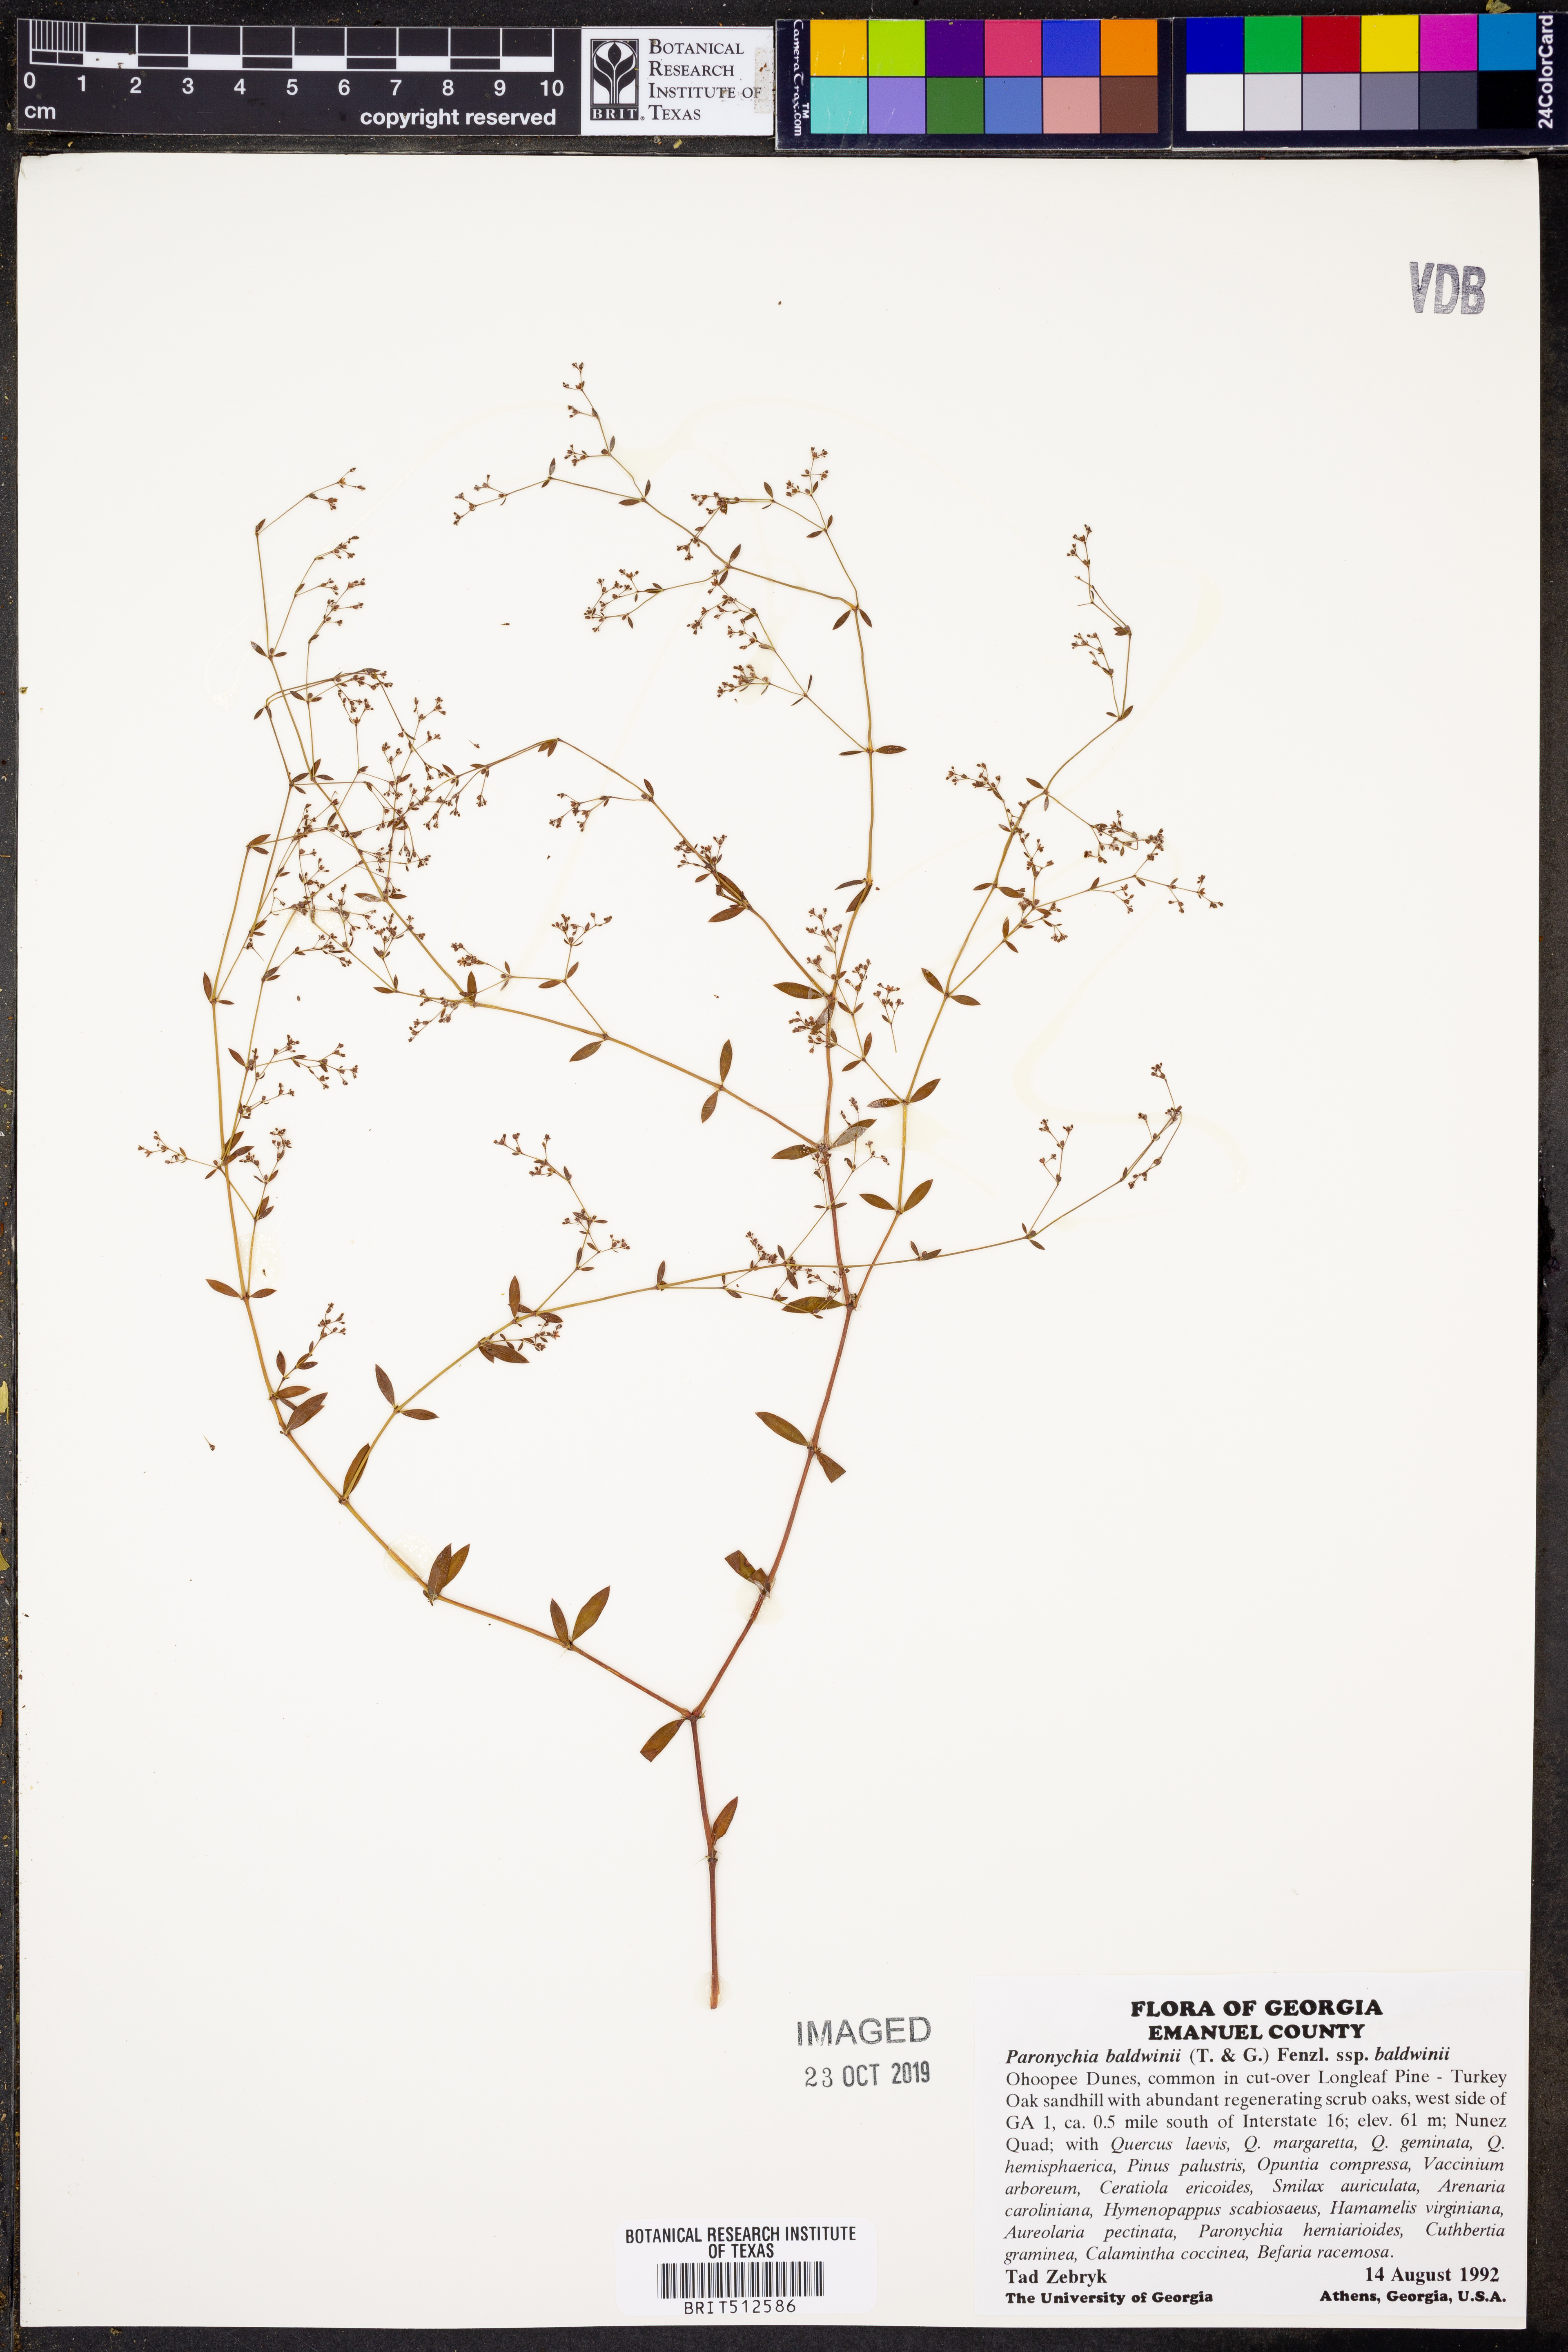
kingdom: Plantae
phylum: Tracheophyta
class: Magnoliopsida
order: Caryophyllales
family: Caryophyllaceae
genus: Paronychia
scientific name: Paronychia baldwinii
